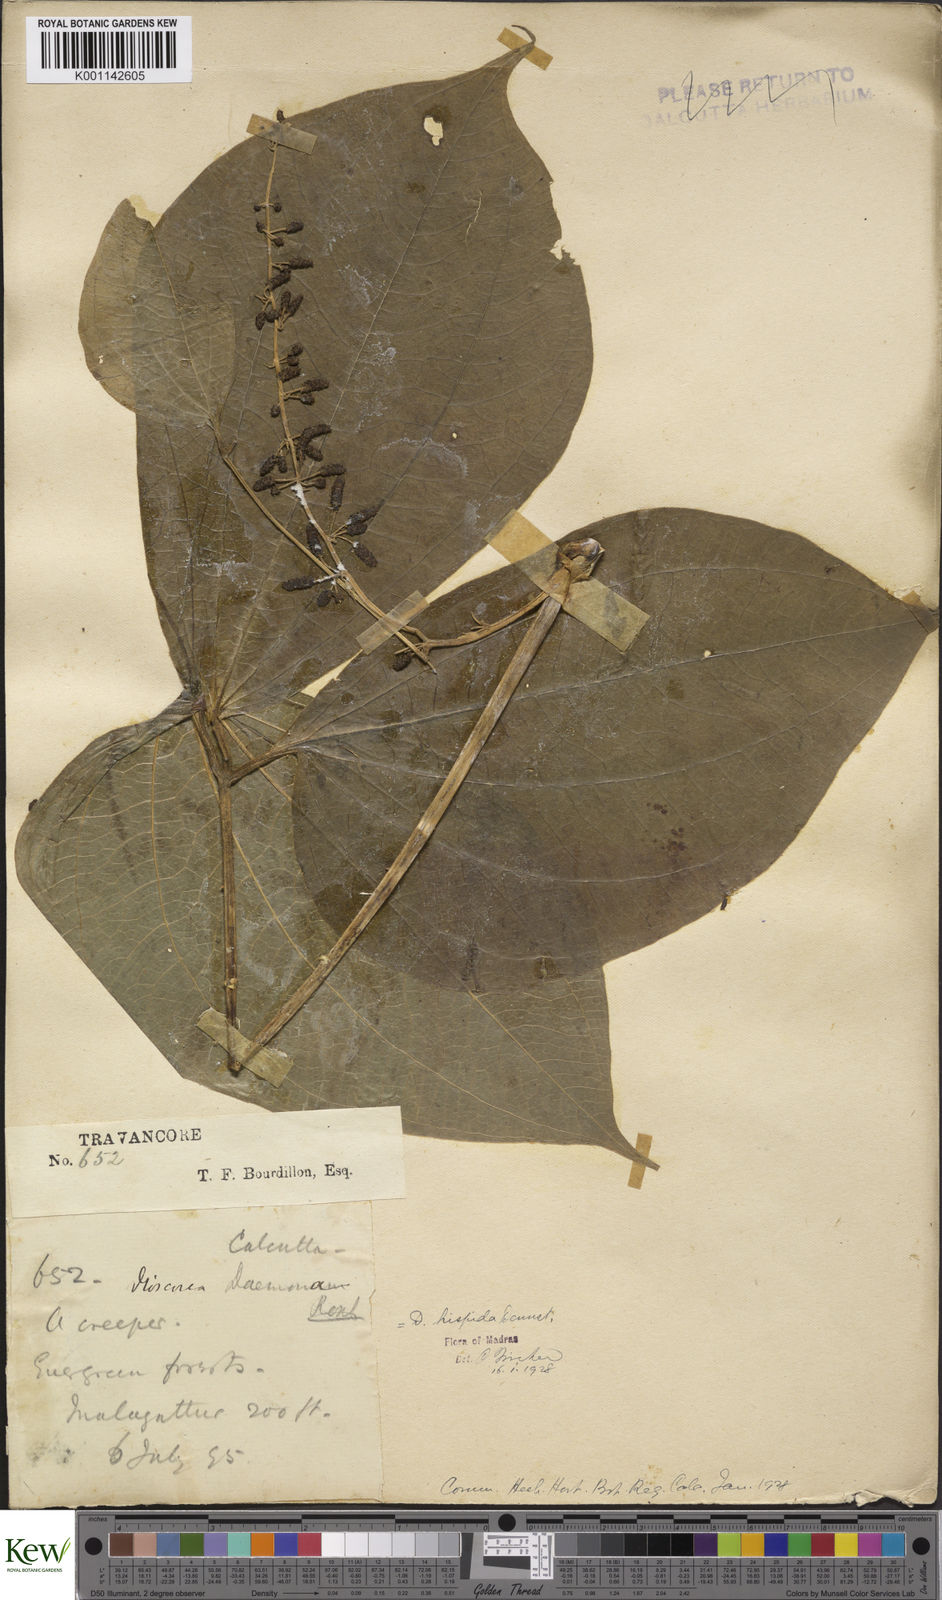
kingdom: Plantae
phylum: Tracheophyta
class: Liliopsida
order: Dioscoreales
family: Dioscoreaceae
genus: Dioscorea
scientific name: Dioscorea hispida
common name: Asiatic bitter yam
